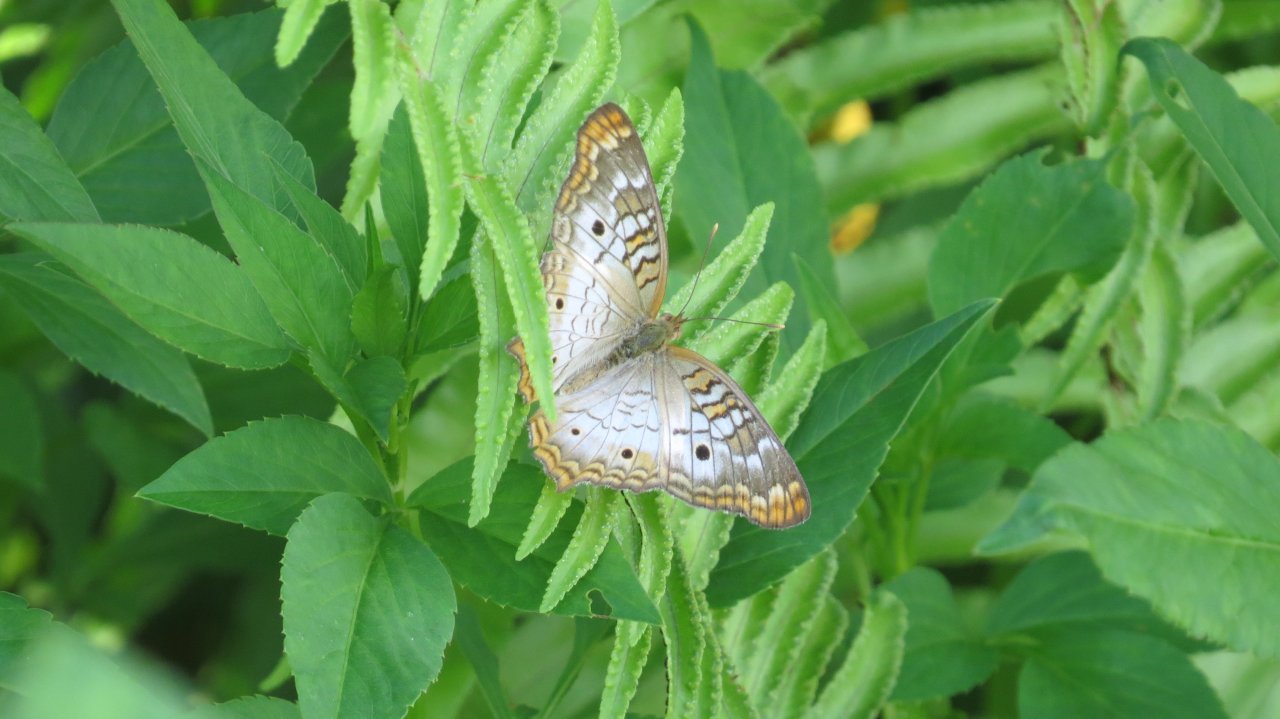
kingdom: Animalia
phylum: Arthropoda
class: Insecta
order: Lepidoptera
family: Nymphalidae
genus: Anartia
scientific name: Anartia jatrophae
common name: White Peacock
